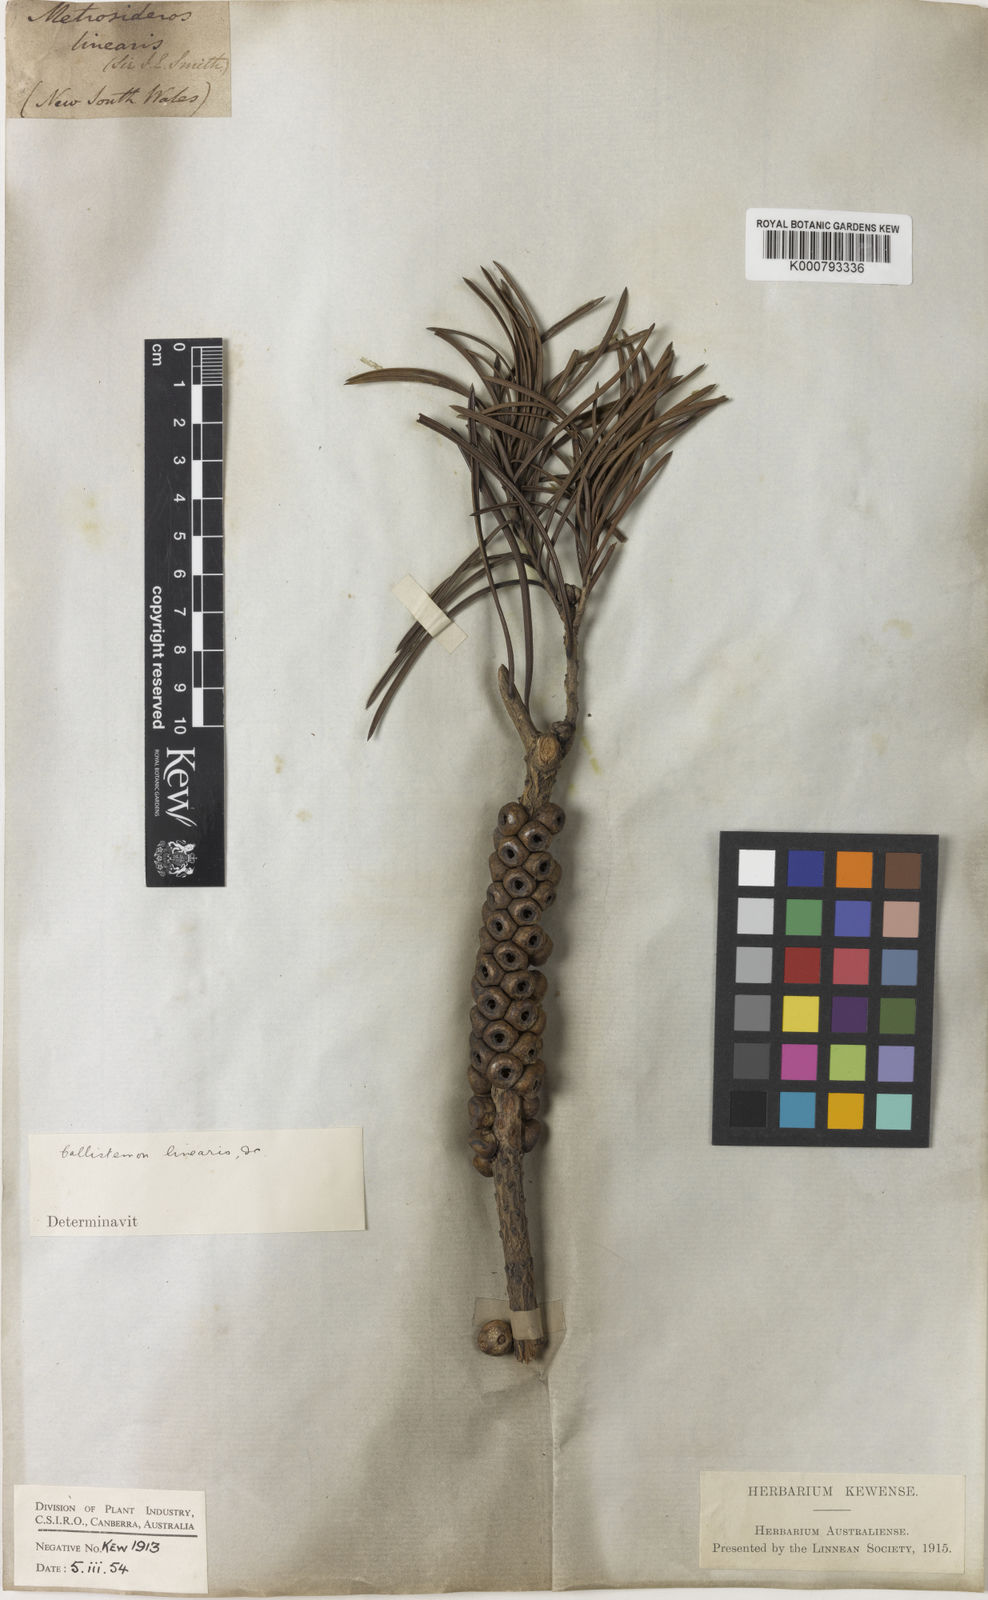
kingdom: Plantae
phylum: Tracheophyta
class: Magnoliopsida
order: Myrtales
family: Myrtaceae
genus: Callistemon
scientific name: Callistemon linearis
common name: Narrow-leaf bottlebrush
